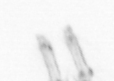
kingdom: Animalia
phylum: Annelida
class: Polychaeta
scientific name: Polychaeta
